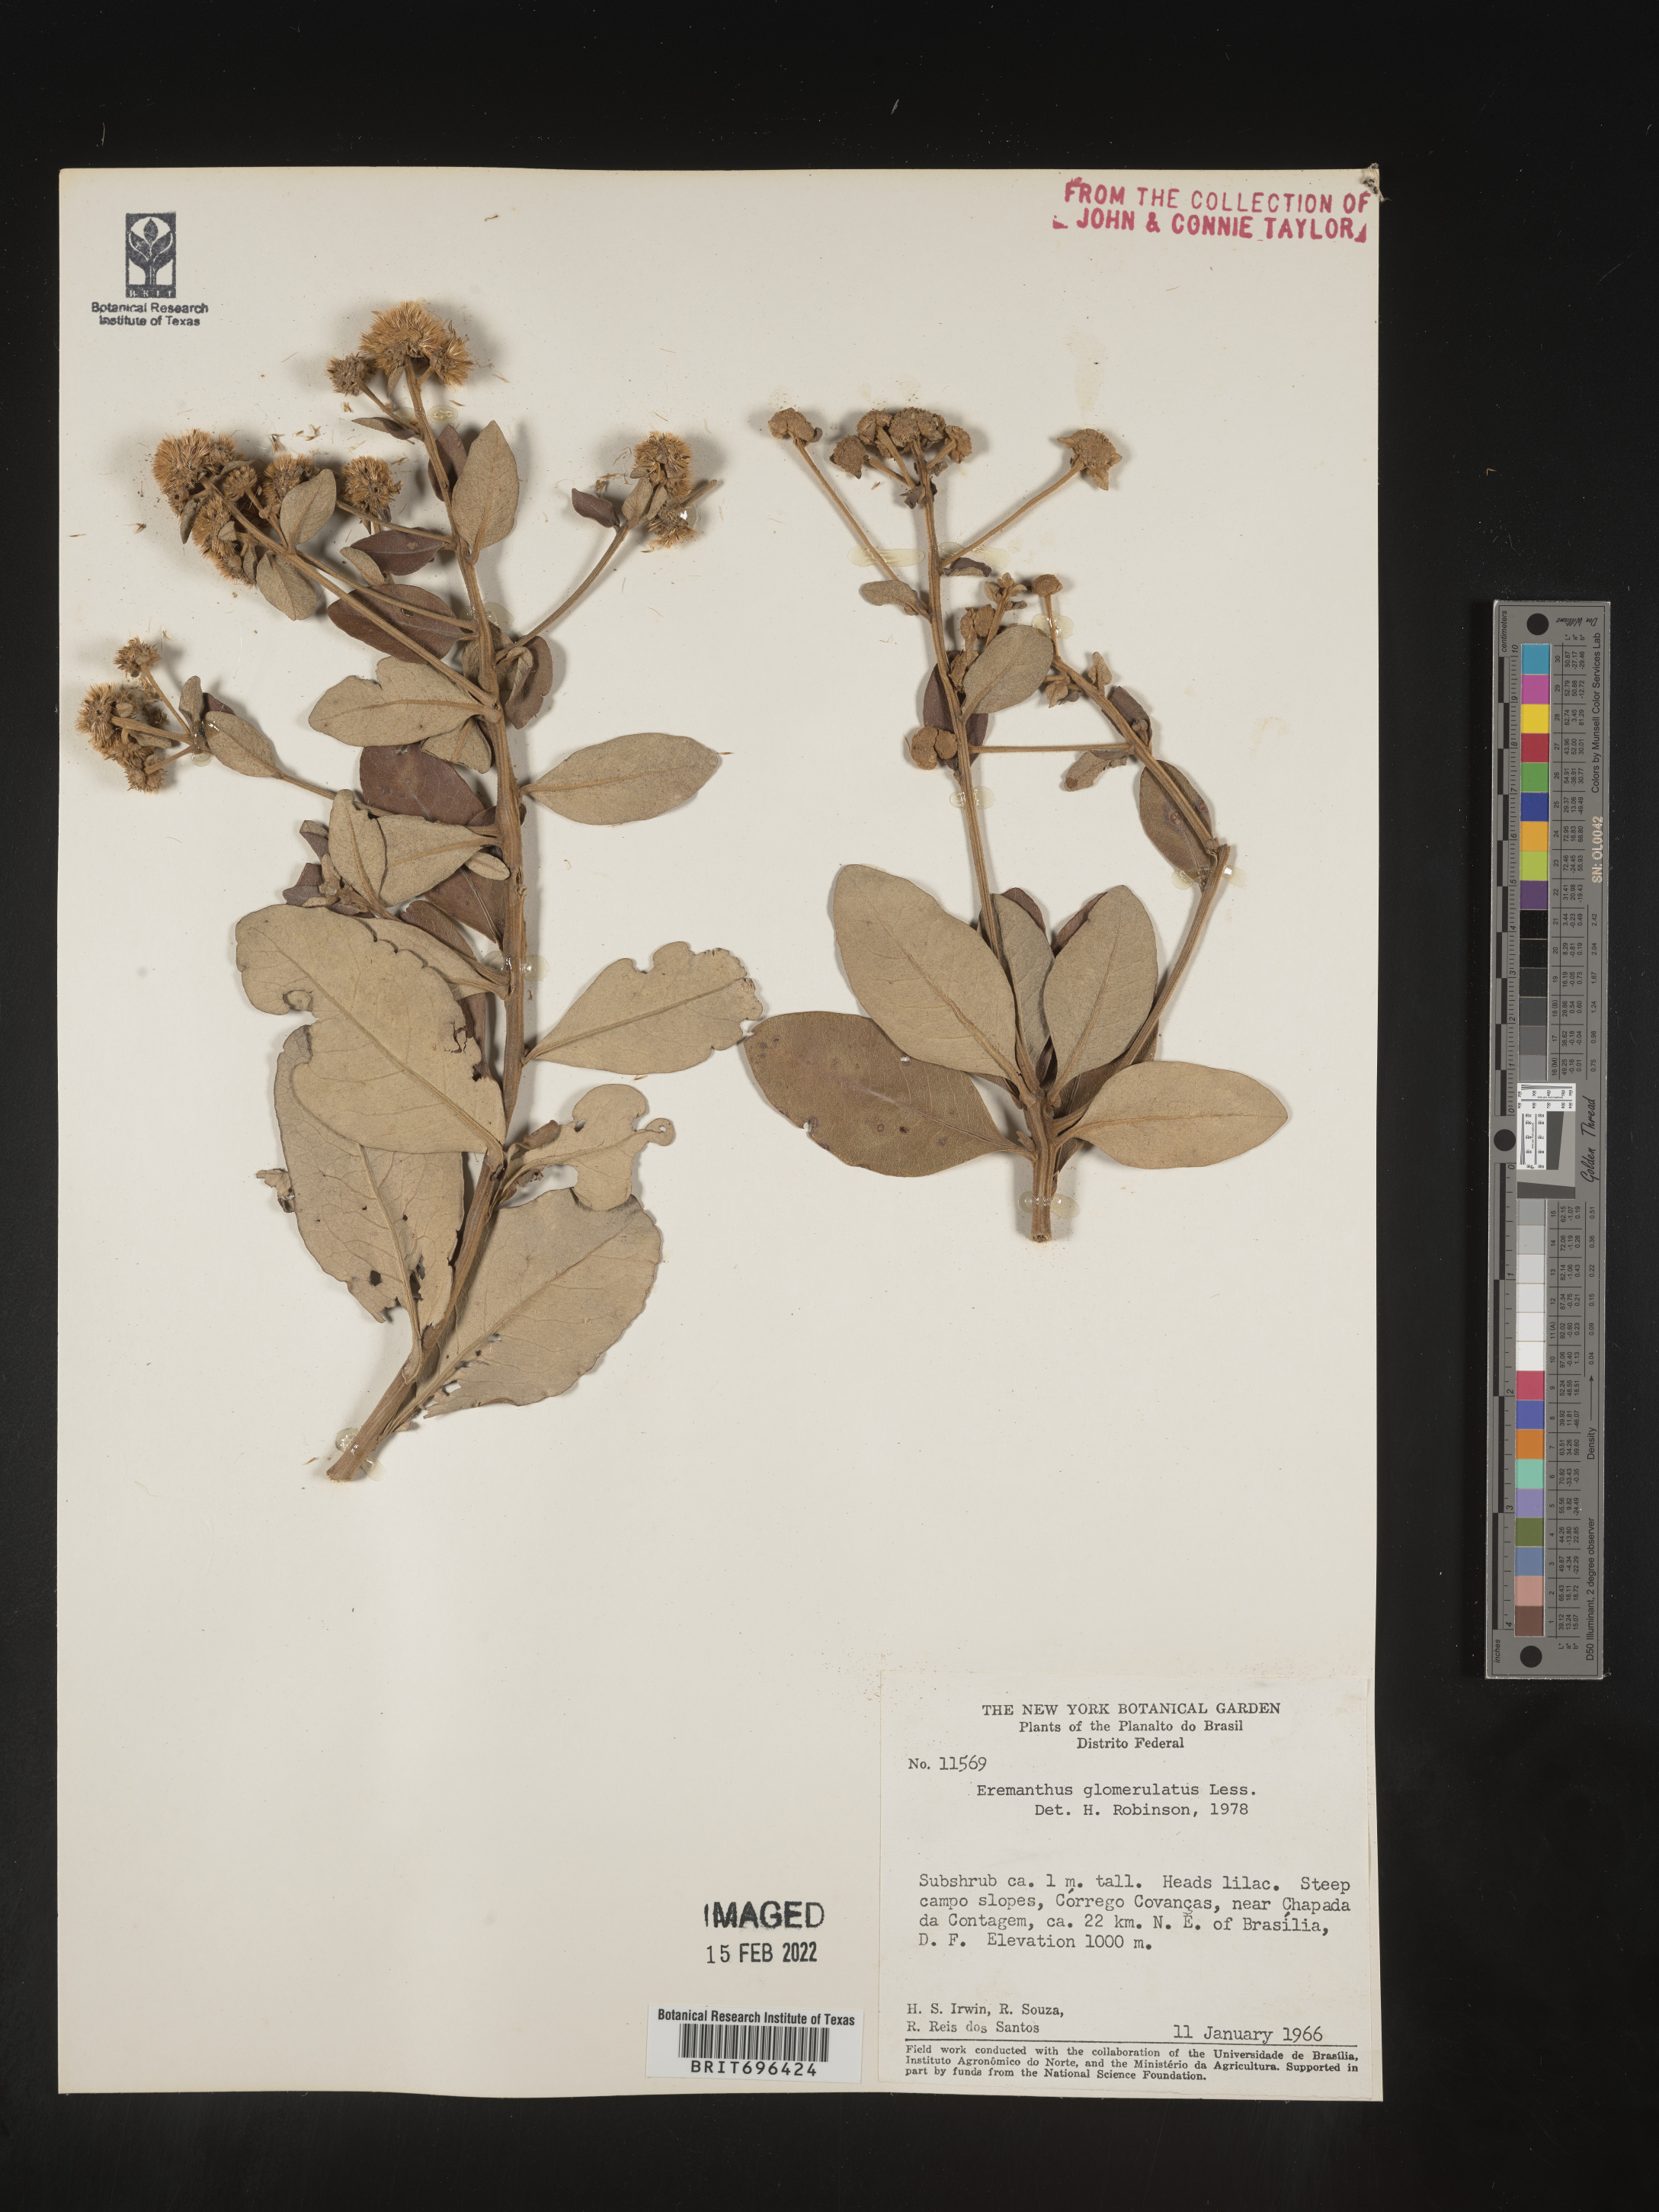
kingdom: Plantae
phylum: Tracheophyta
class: Magnoliopsida
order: Asterales
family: Asteraceae
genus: Eremanthus
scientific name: Eremanthus
